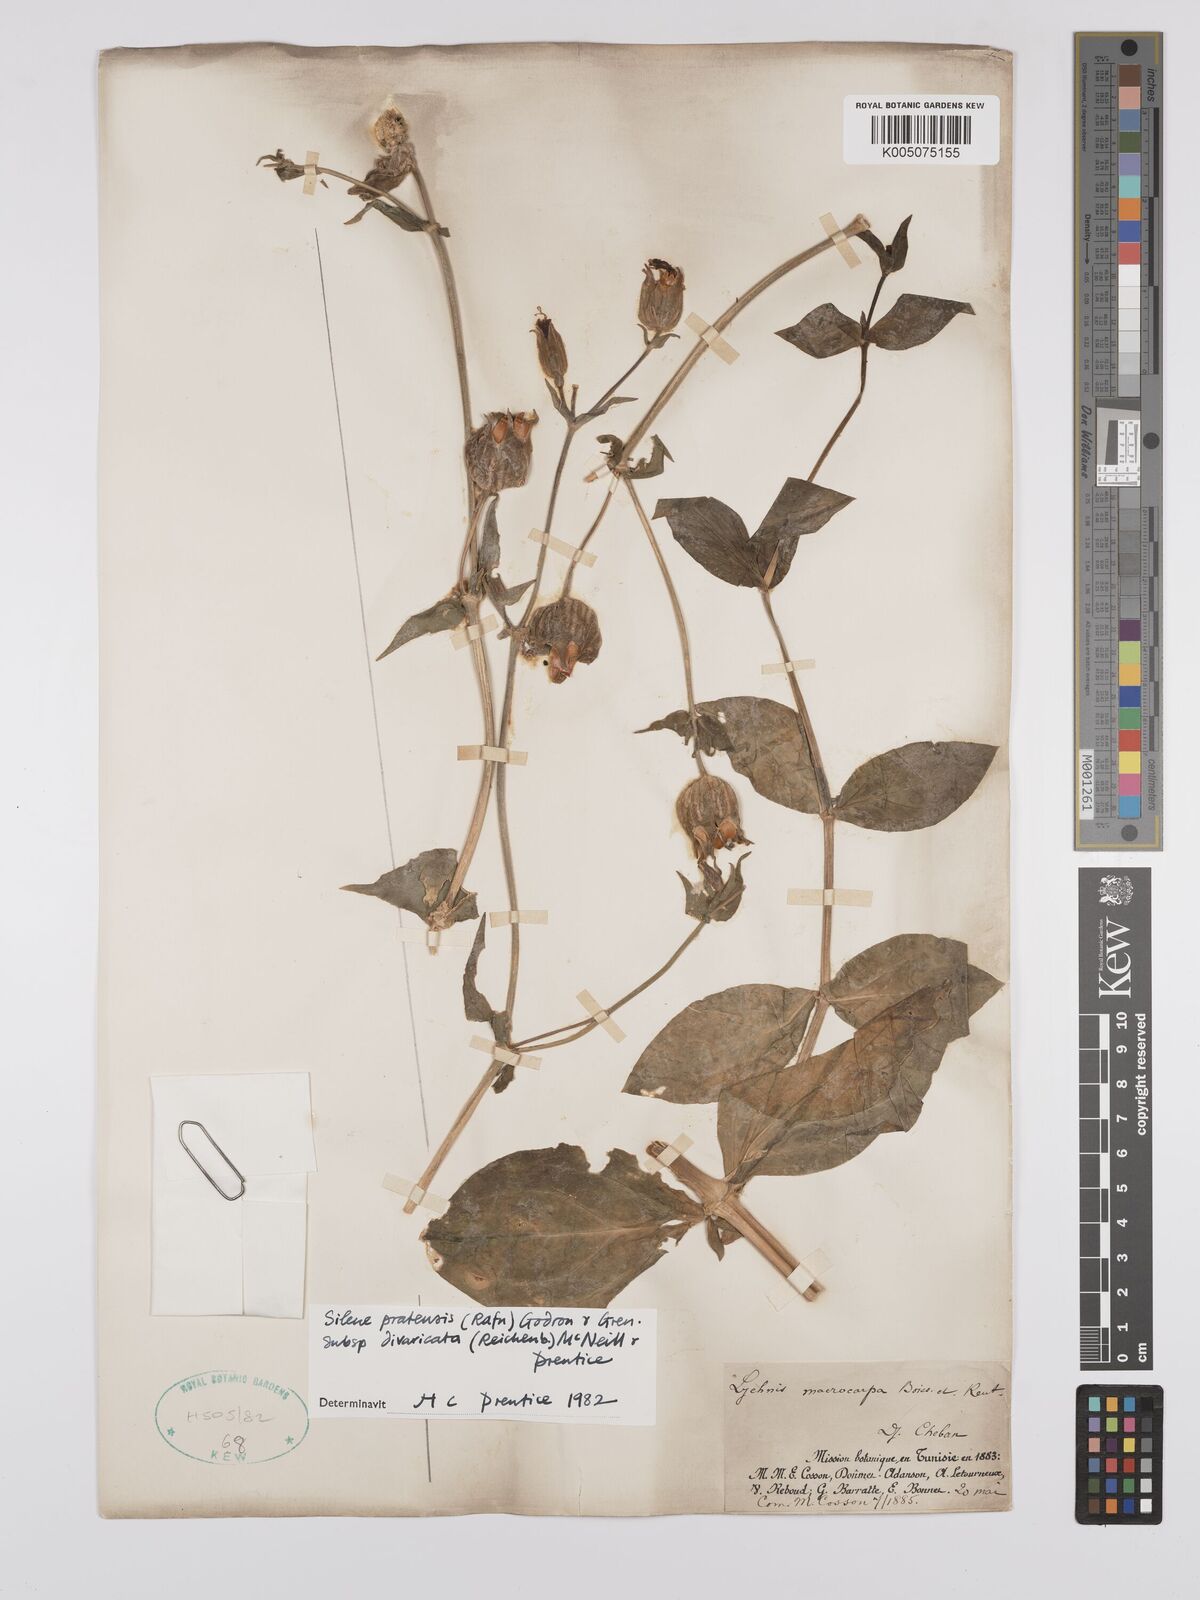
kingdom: Plantae
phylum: Tracheophyta
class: Magnoliopsida
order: Caryophyllales
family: Caryophyllaceae
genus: Silene
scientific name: Silene latifolia
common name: White campion
